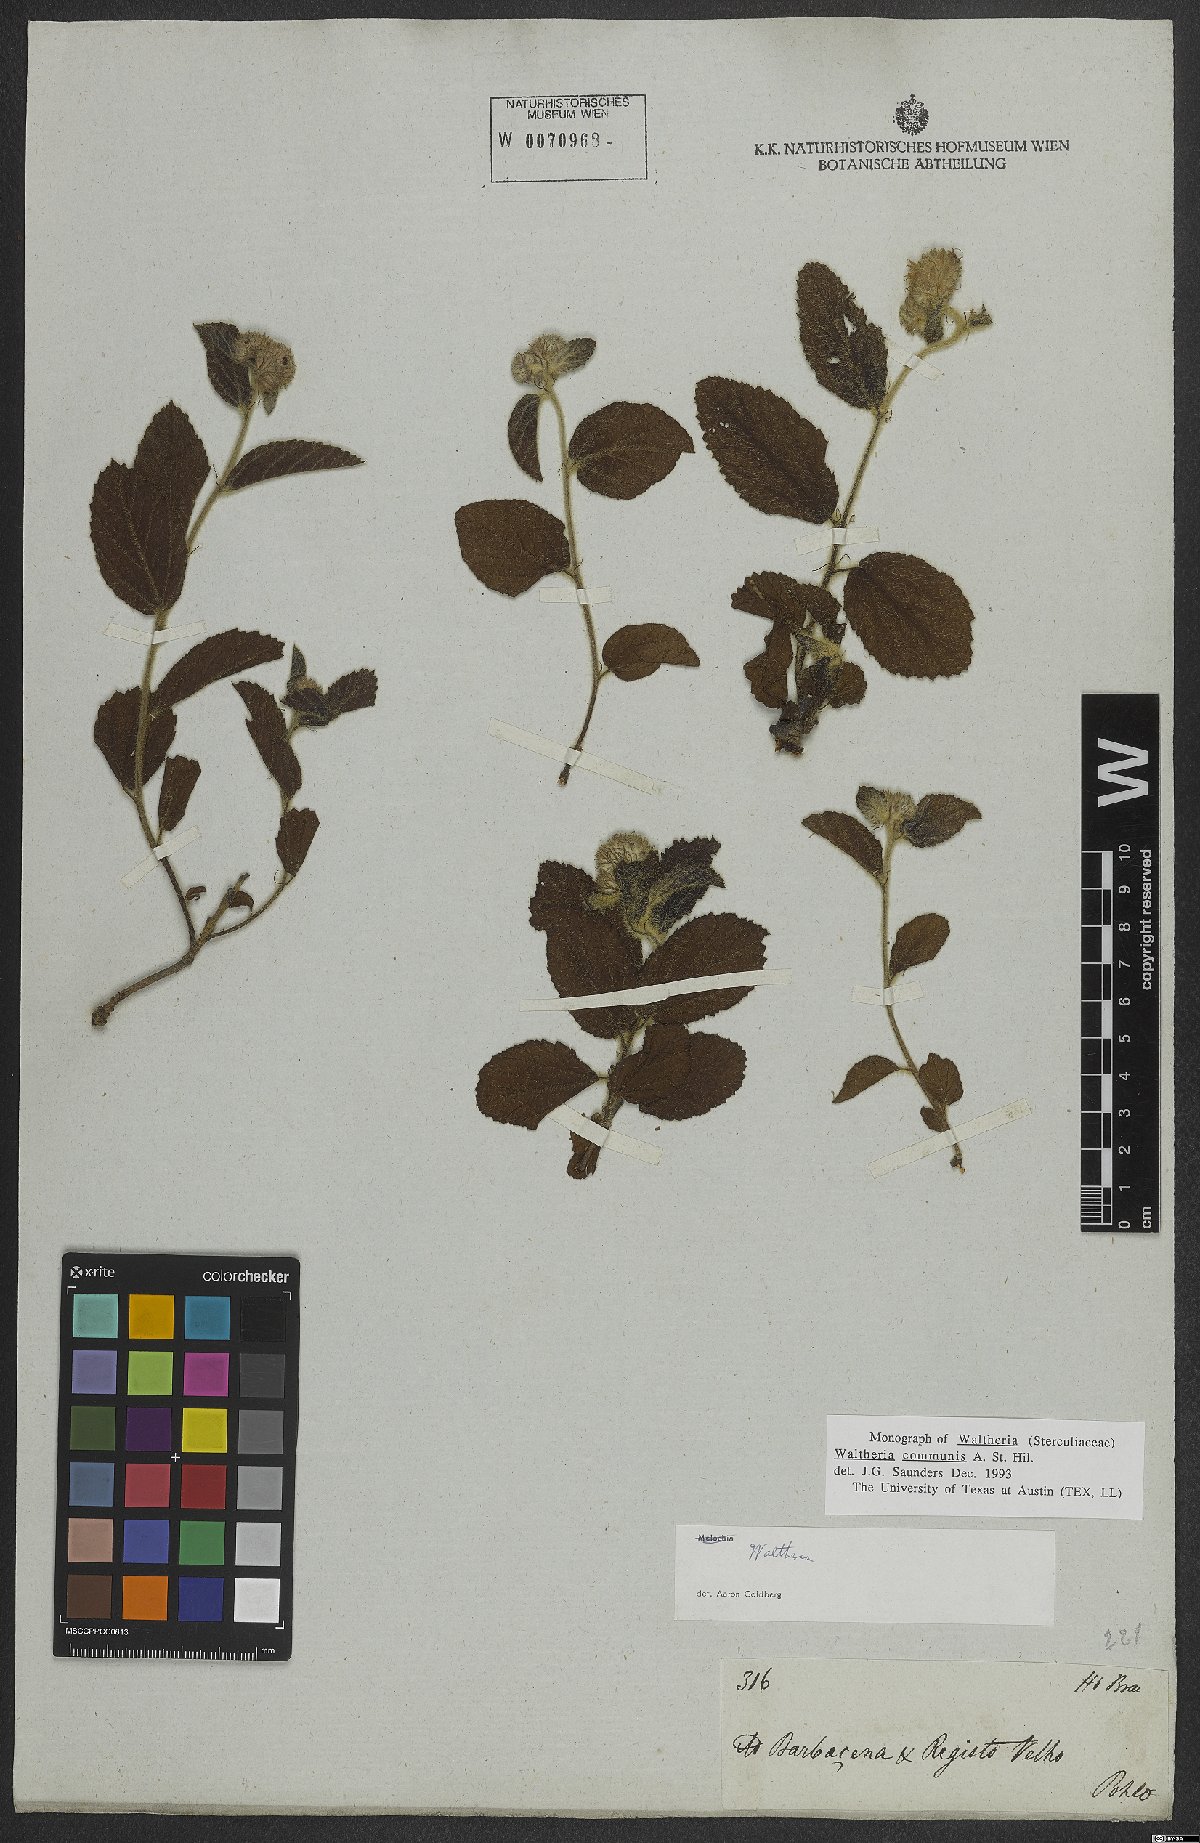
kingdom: Plantae
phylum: Tracheophyta
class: Magnoliopsida
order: Malvales
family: Malvaceae
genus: Waltheria
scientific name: Waltheria communis
